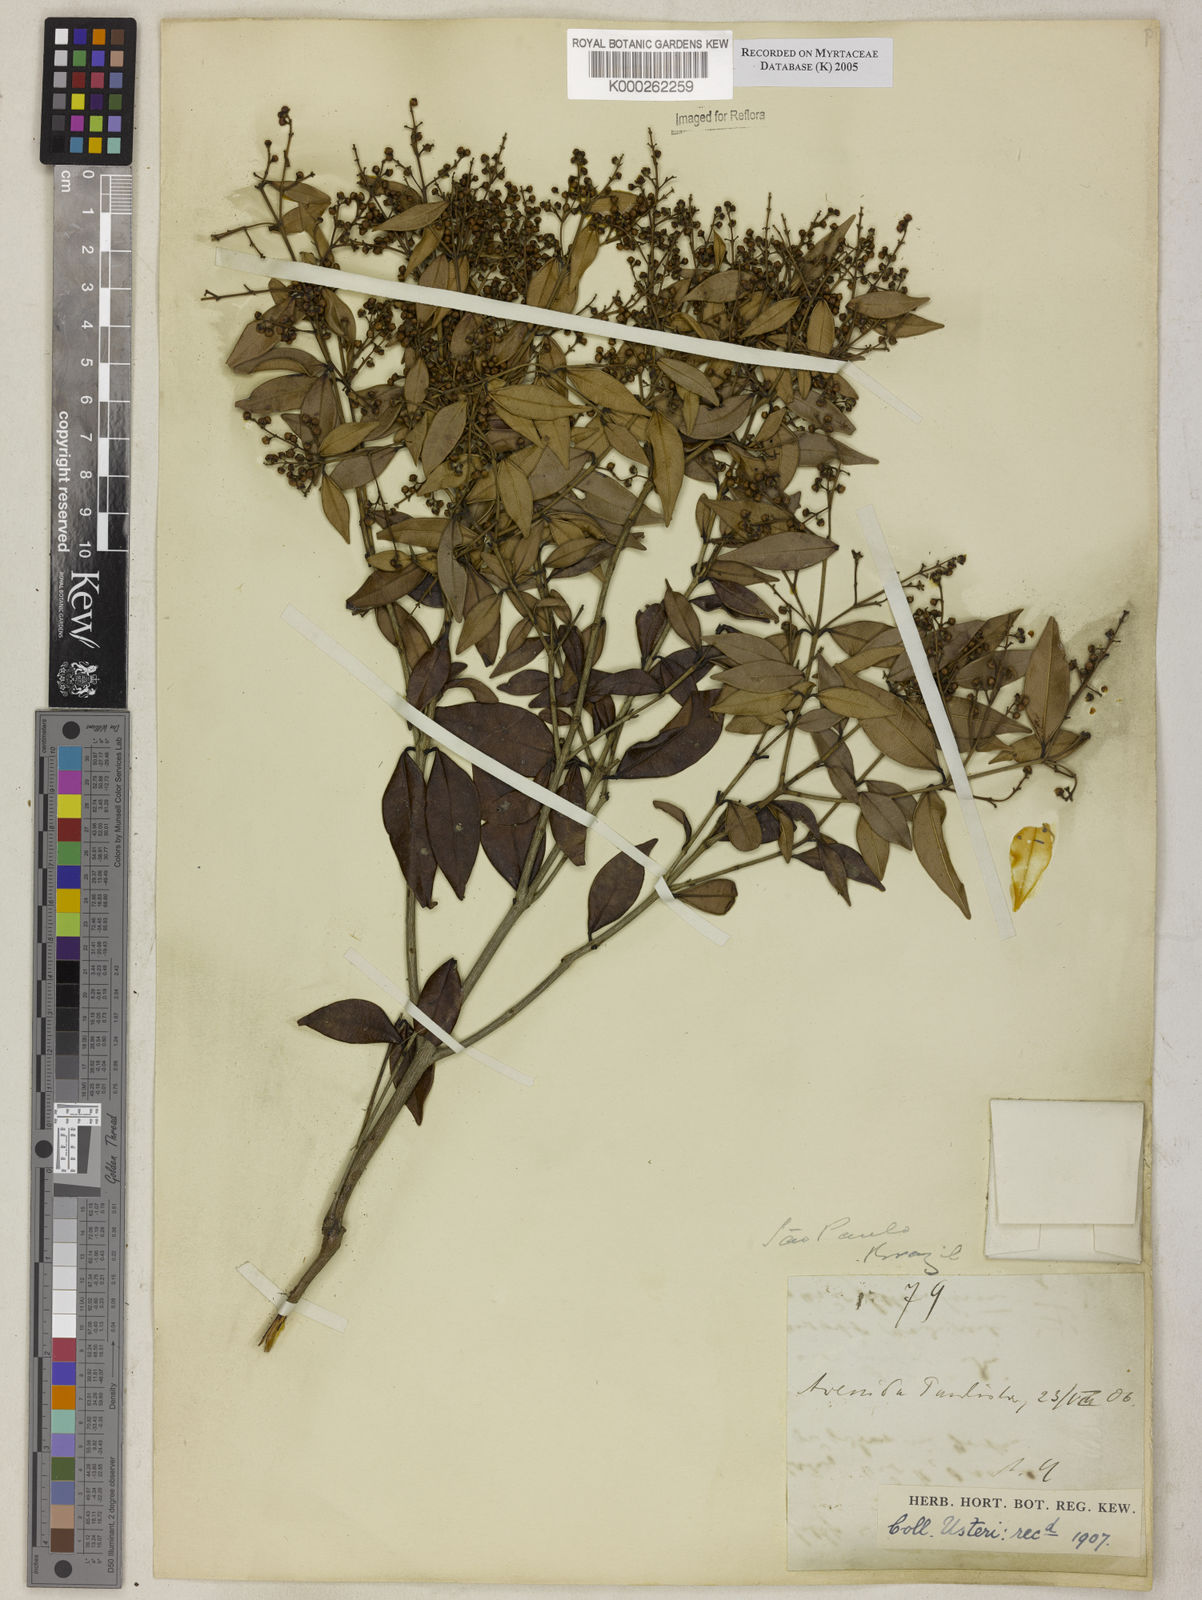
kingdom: Plantae
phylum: Tracheophyta
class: Magnoliopsida
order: Myrtales
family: Myrtaceae
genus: Myrcia
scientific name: Myrcia splendens
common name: Surinam cherry
